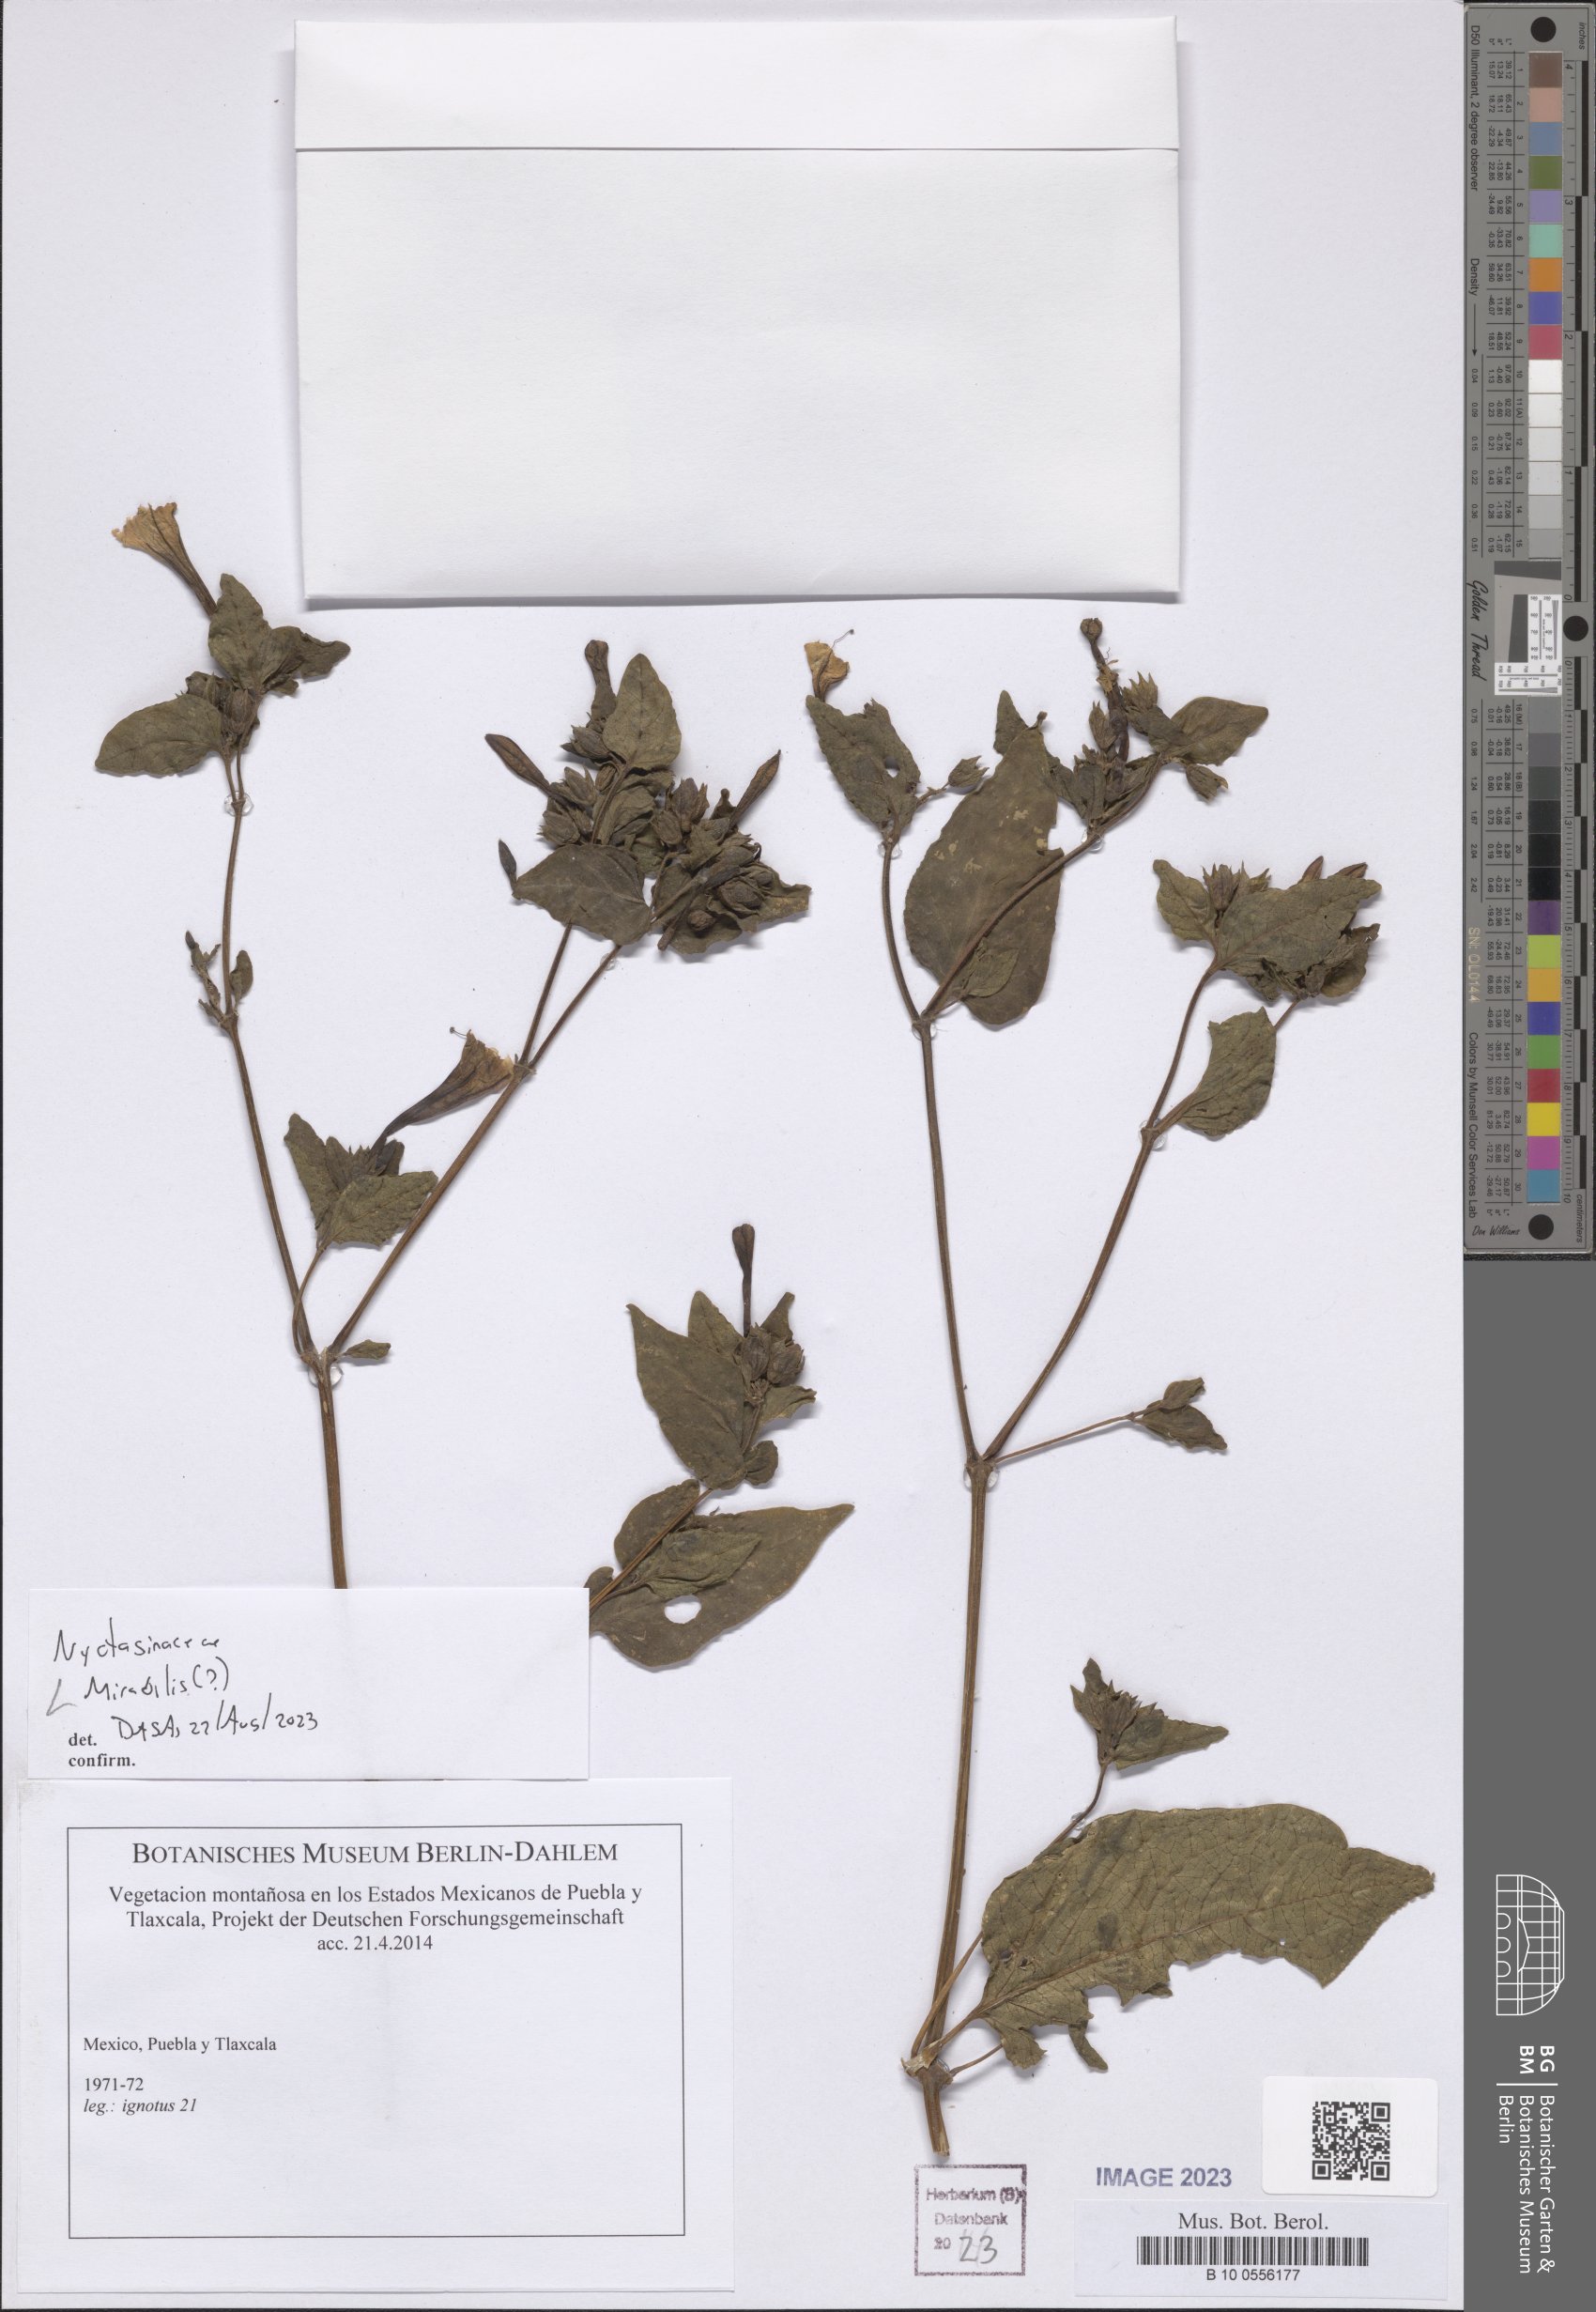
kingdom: Plantae
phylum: Tracheophyta
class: Magnoliopsida
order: Caryophyllales
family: Nyctaginaceae
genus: Mirabilis
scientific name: Mirabilis
